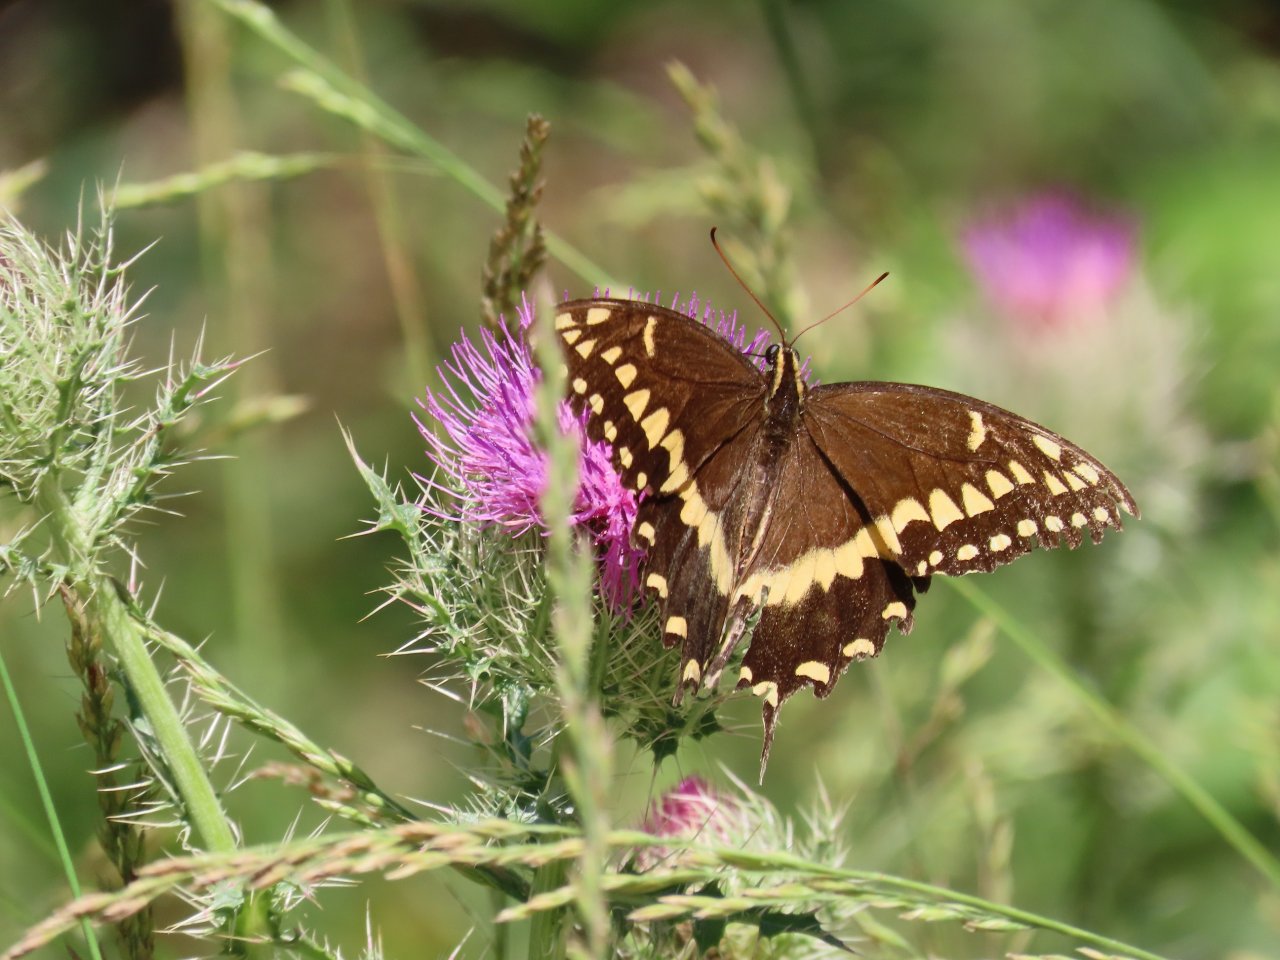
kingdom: Animalia
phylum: Arthropoda
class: Insecta
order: Lepidoptera
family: Papilionidae
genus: Pterourus
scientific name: Pterourus palamedes
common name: Palamedes Swallowtail
